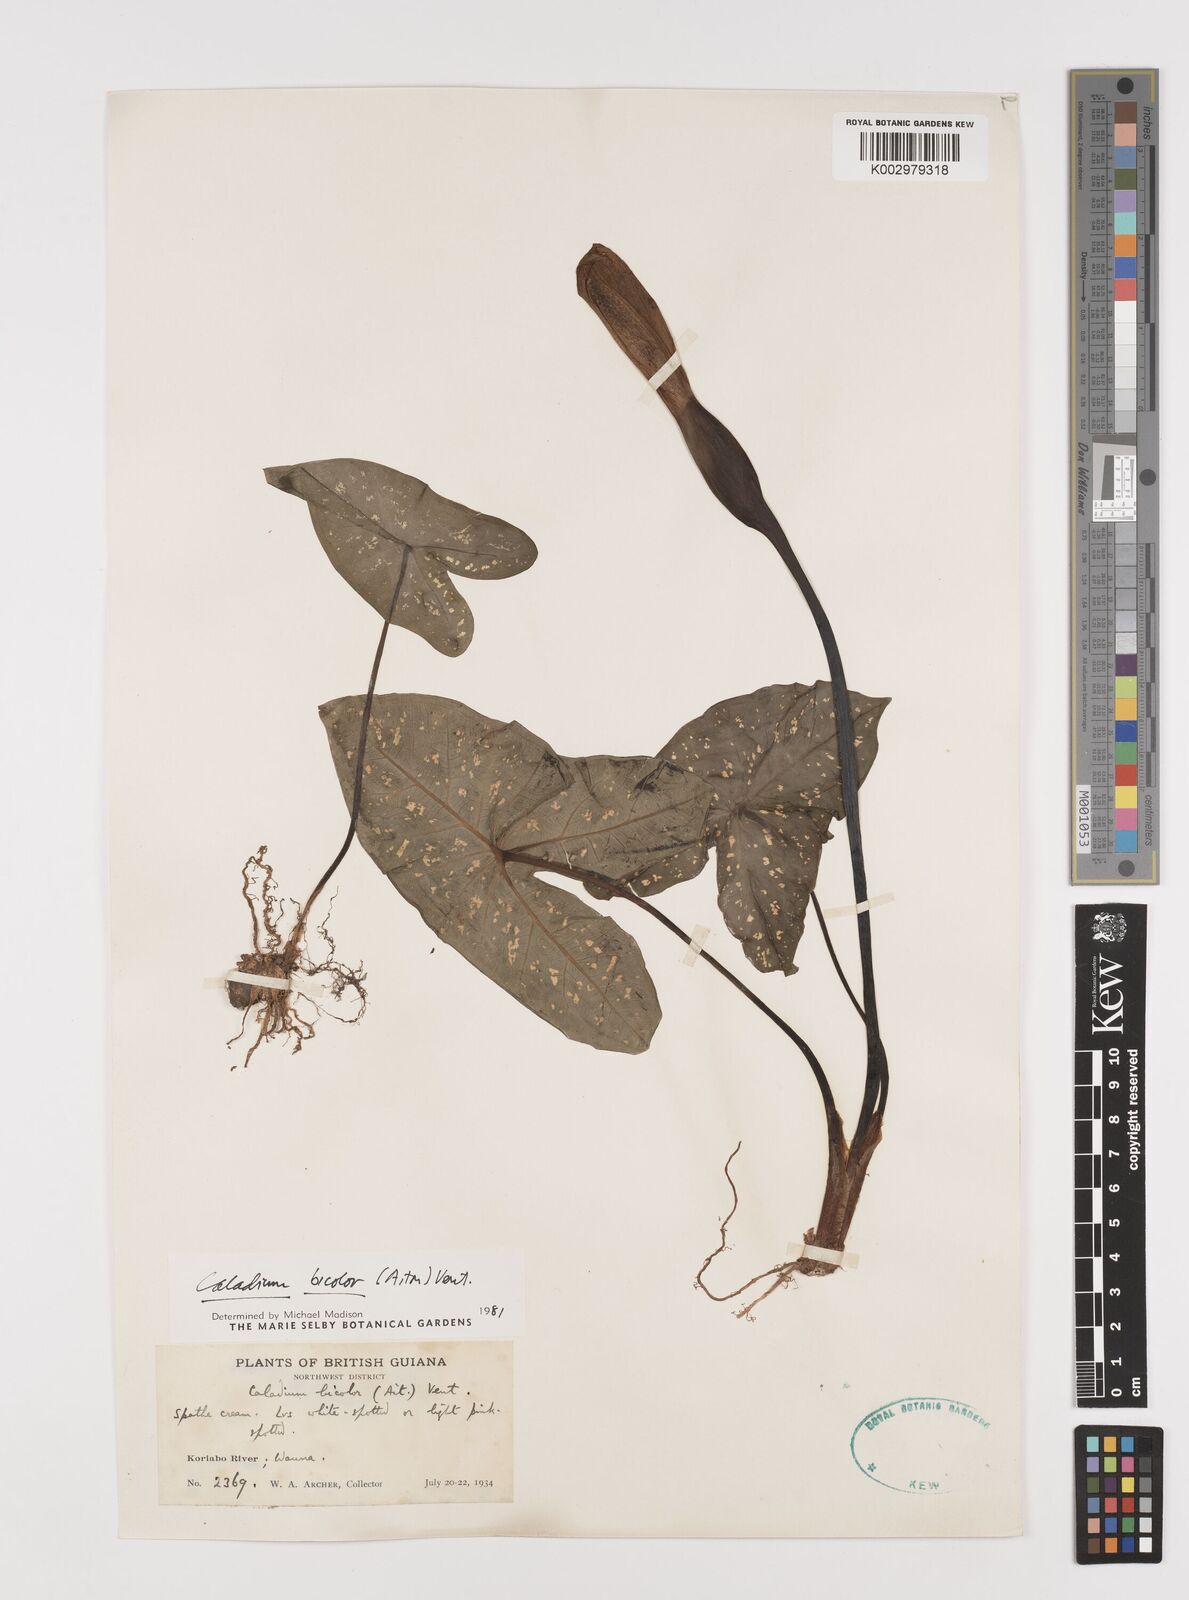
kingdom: Plantae
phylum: Tracheophyta
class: Liliopsida
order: Alismatales
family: Araceae
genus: Caladium
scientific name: Caladium bicolor
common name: Artist's pallet
